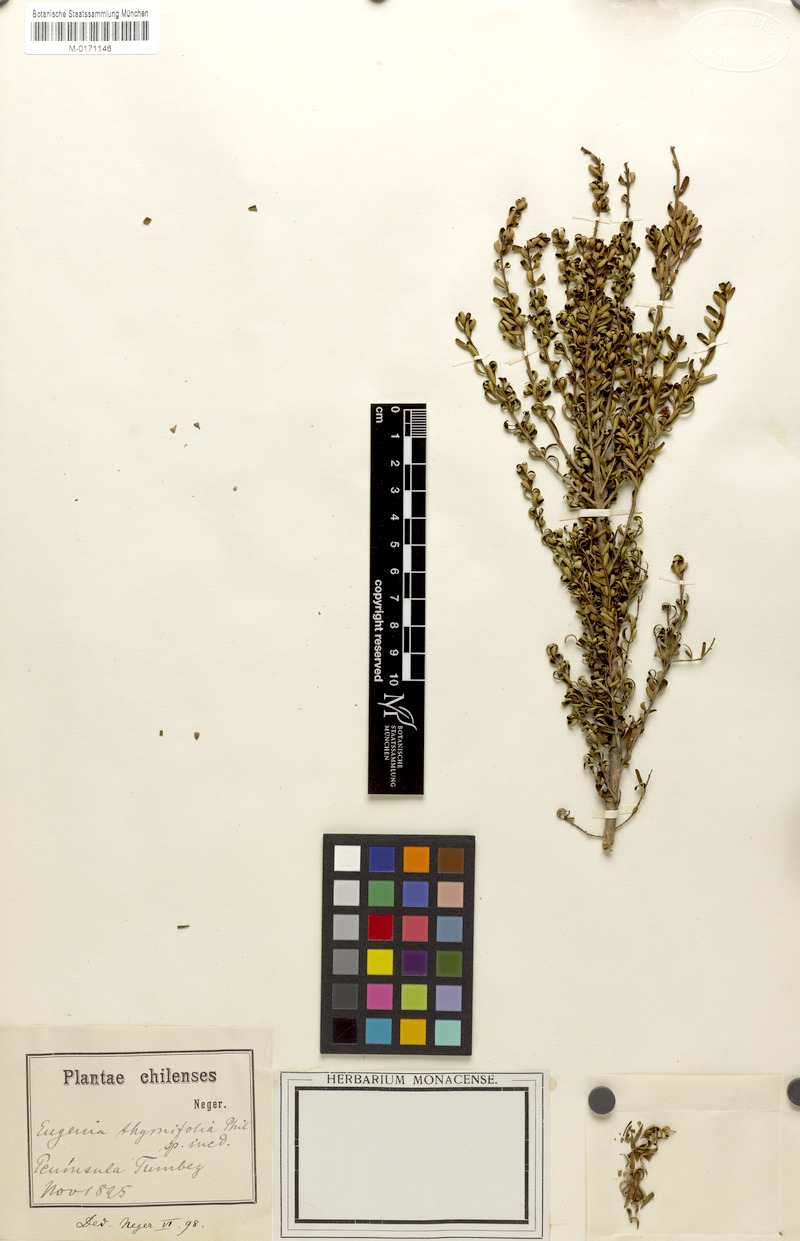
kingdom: Plantae
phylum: Tracheophyta
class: Magnoliopsida
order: Myrtales
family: Myrtaceae
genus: Myrceugenia
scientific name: Myrceugenia leptospermioides
